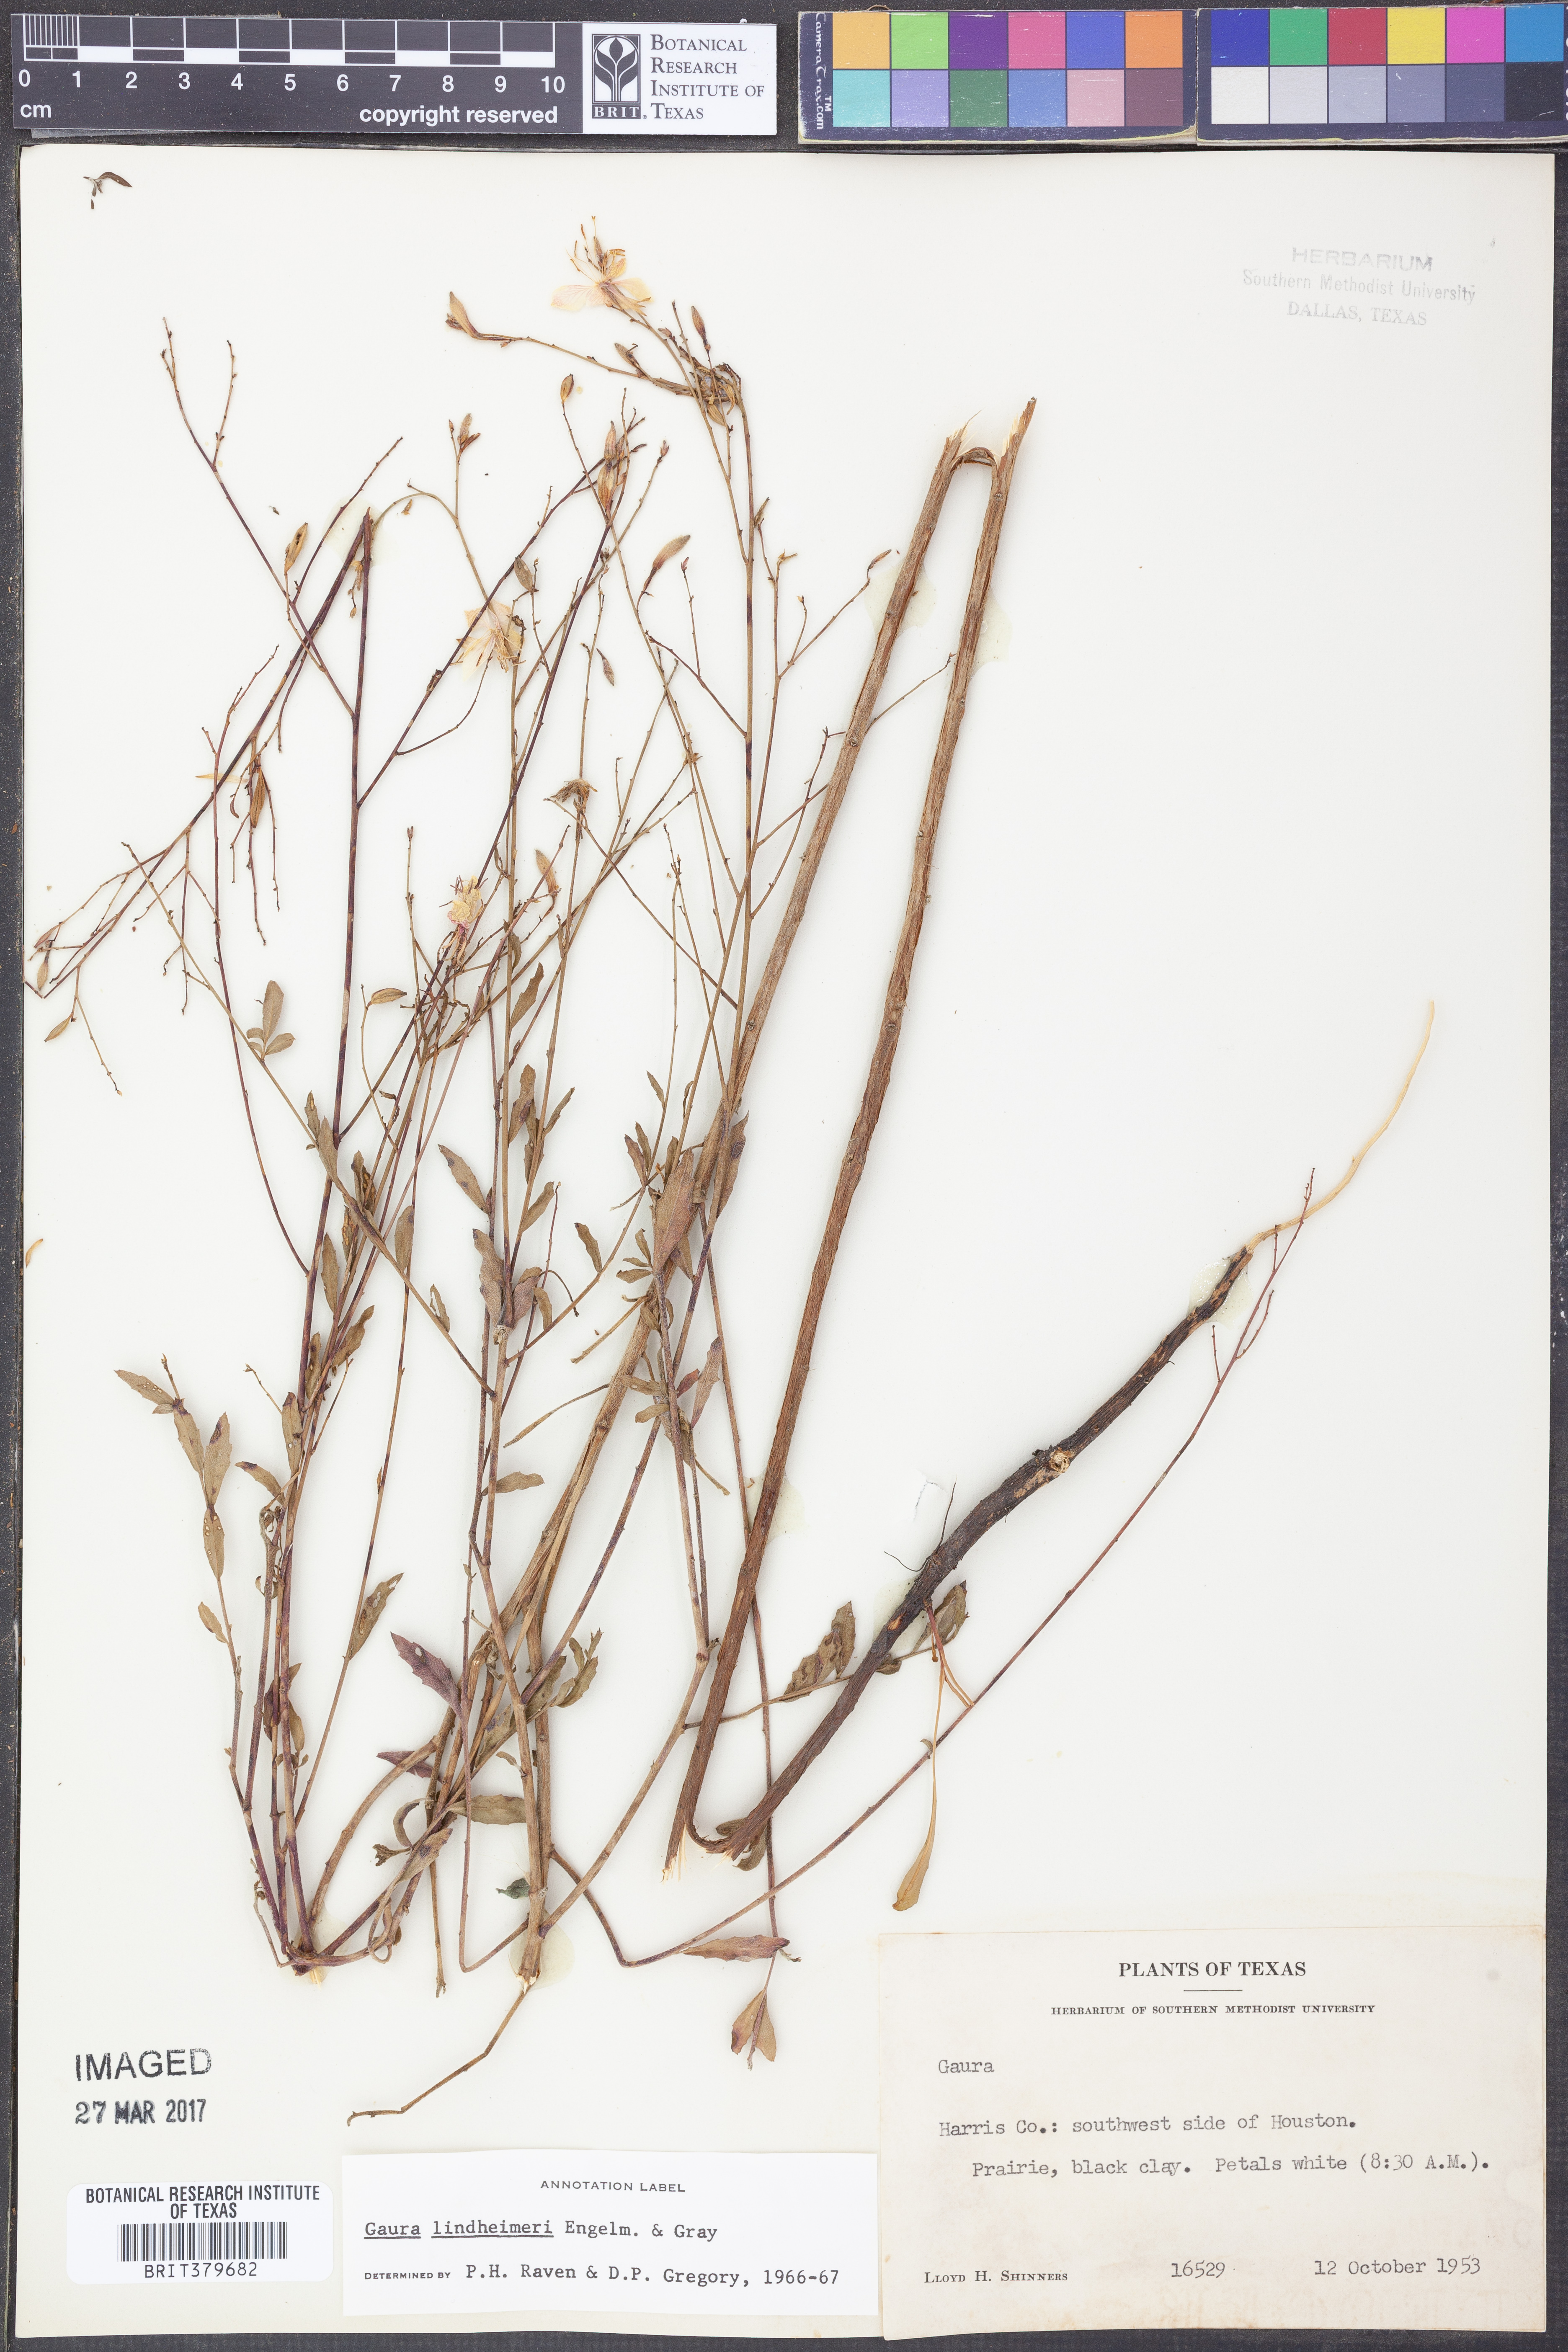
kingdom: Plantae
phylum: Tracheophyta
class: Magnoliopsida
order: Myrtales
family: Onagraceae
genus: Oenothera
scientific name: Oenothera lindheimeri
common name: Lindheimer's beeblossom
